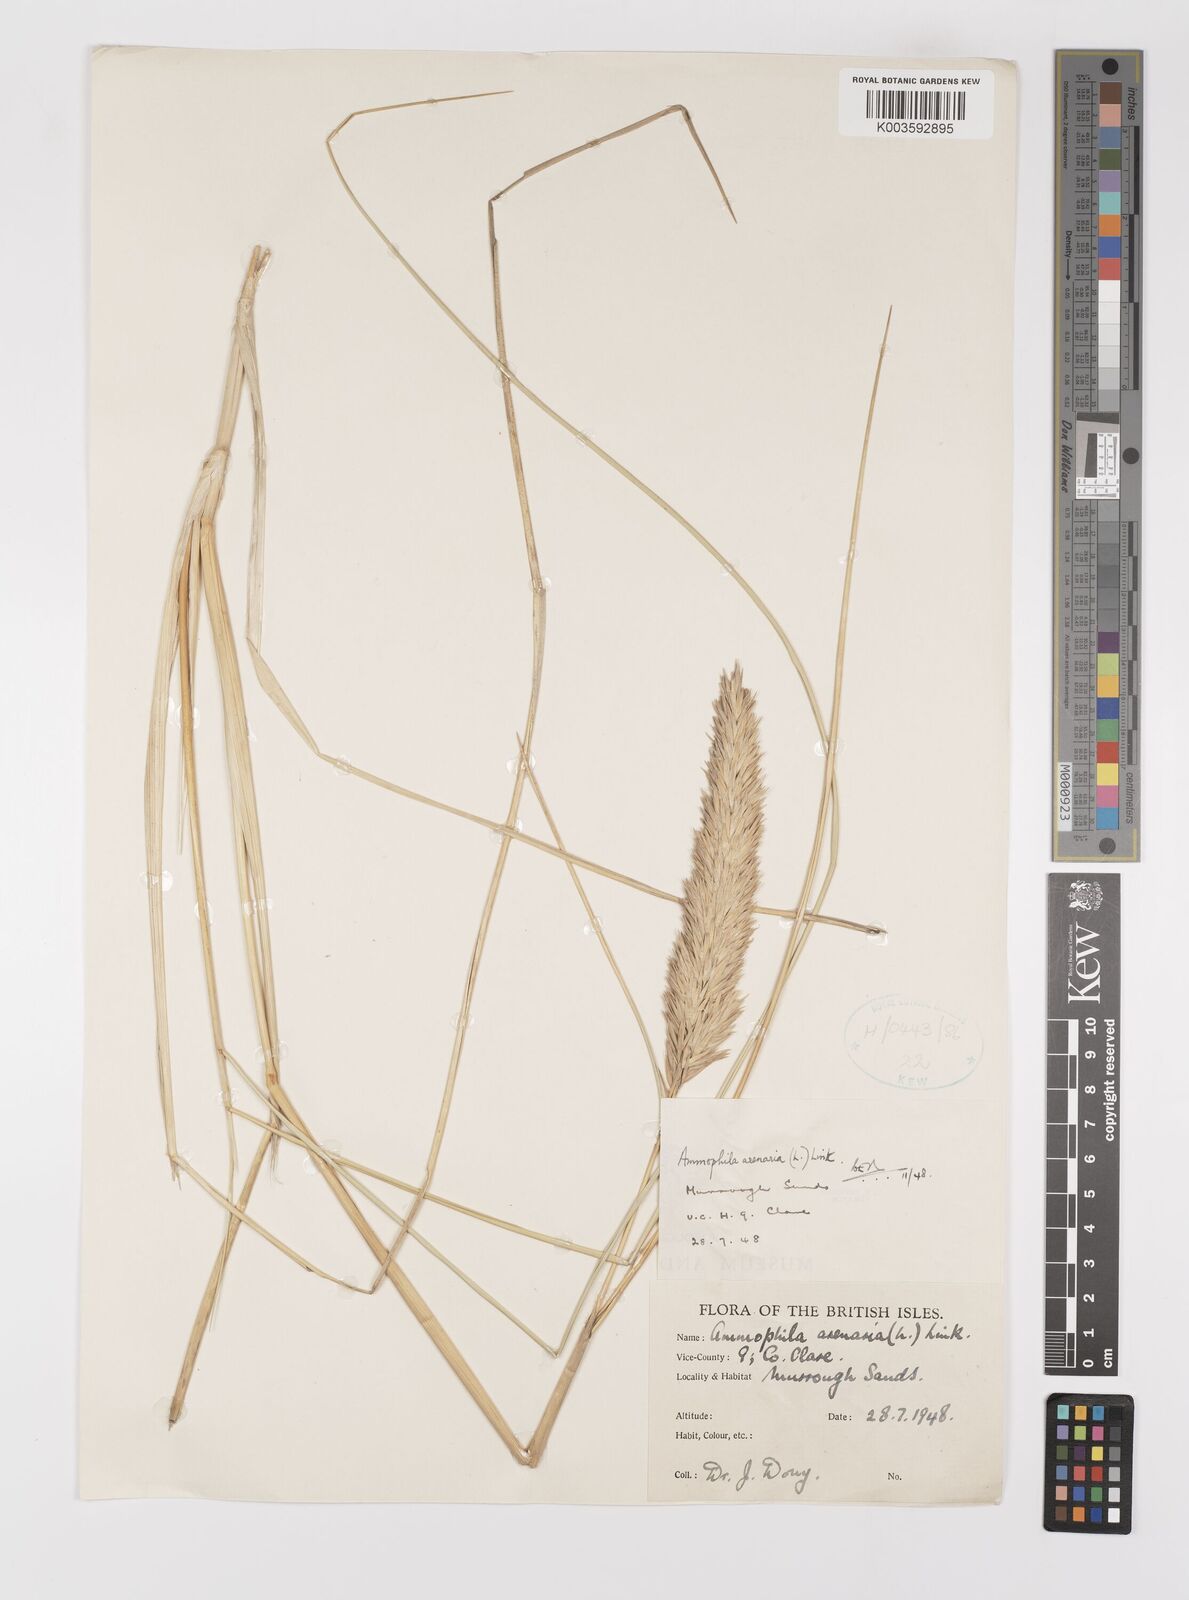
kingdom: Plantae
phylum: Tracheophyta
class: Liliopsida
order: Poales
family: Poaceae
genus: Calamagrostis
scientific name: Calamagrostis arenaria
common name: European beachgrass
